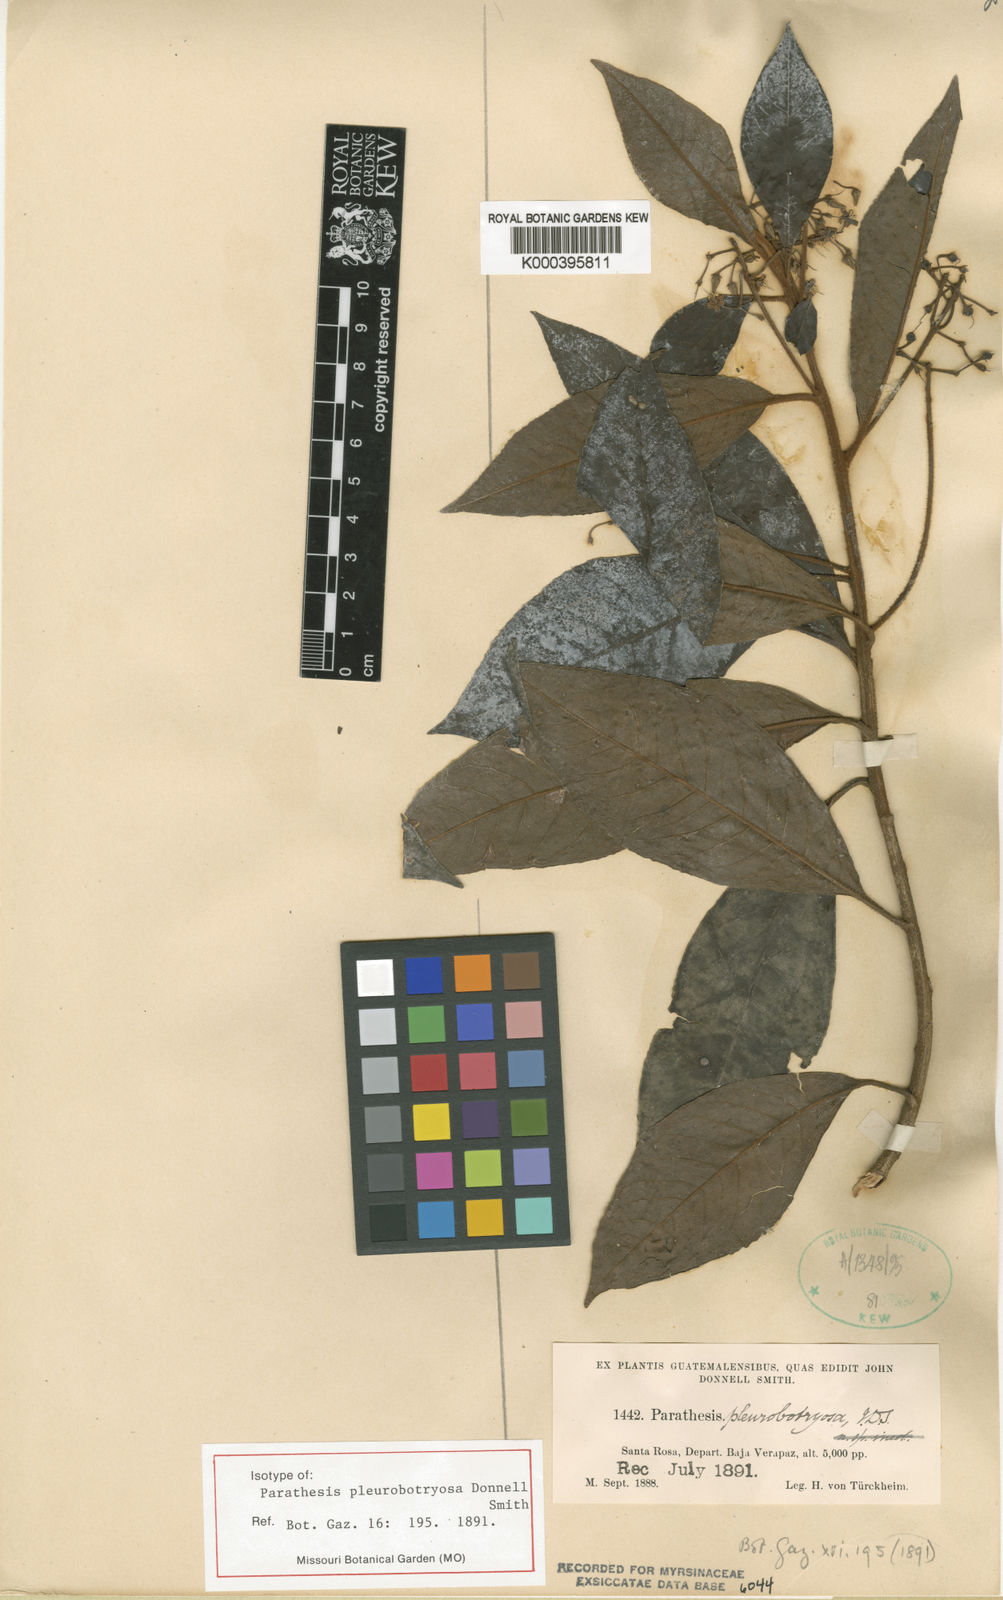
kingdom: Plantae
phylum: Tracheophyta
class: Magnoliopsida
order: Ericales
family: Primulaceae
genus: Parathesis
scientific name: Parathesis pleurobotryosa
